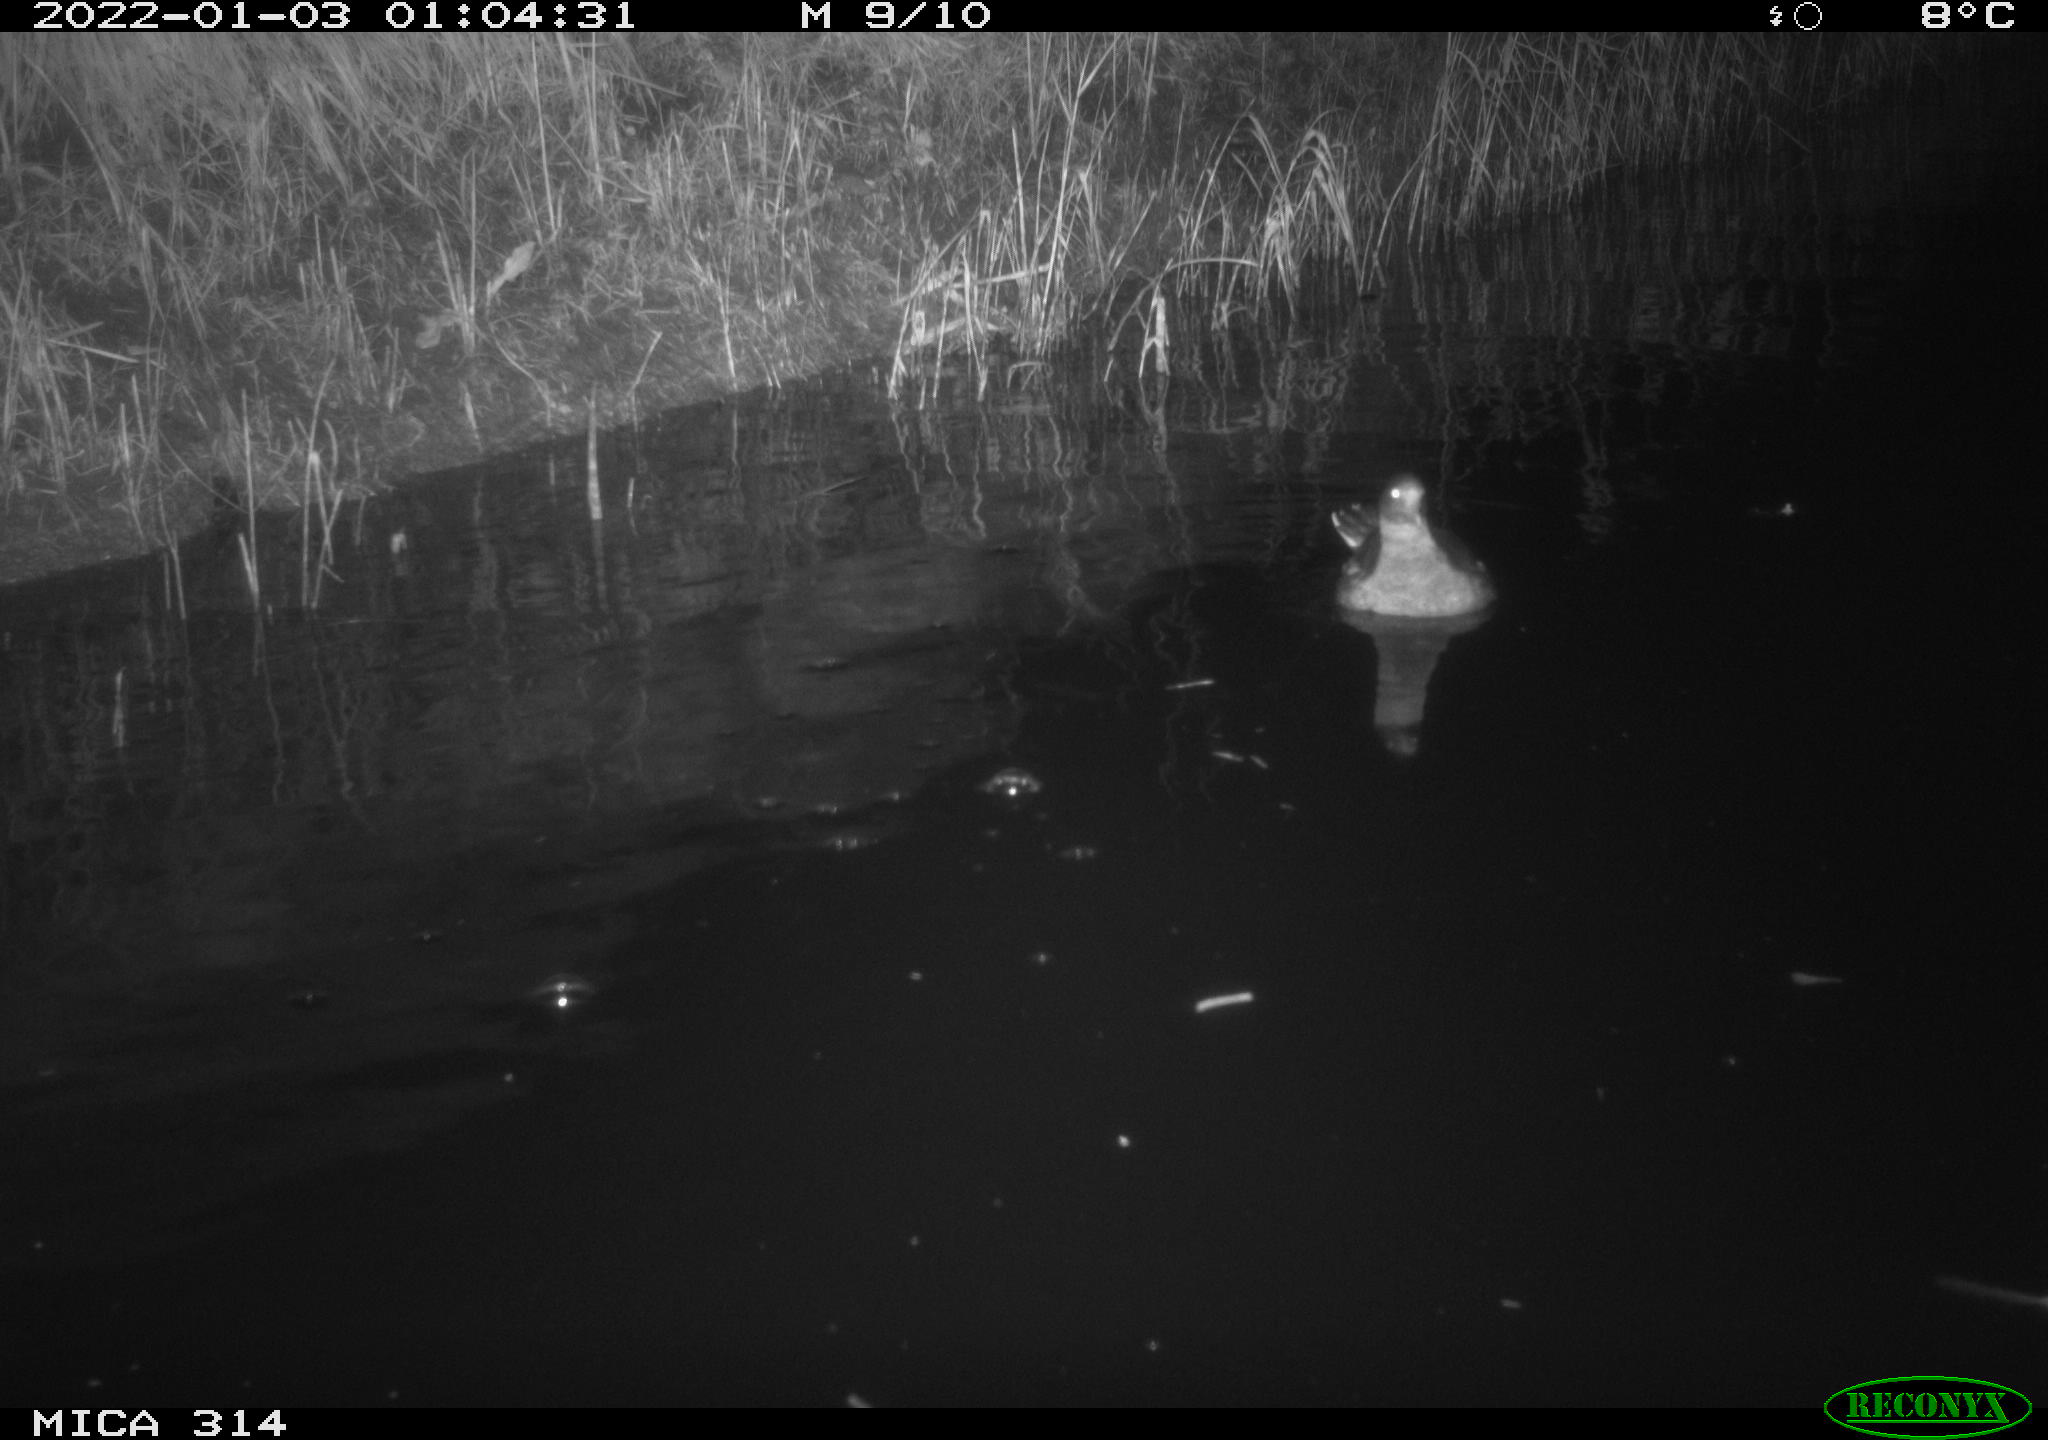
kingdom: Animalia
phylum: Chordata
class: Aves
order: Gruiformes
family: Rallidae
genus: Gallinula
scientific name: Gallinula chloropus
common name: Common moorhen
